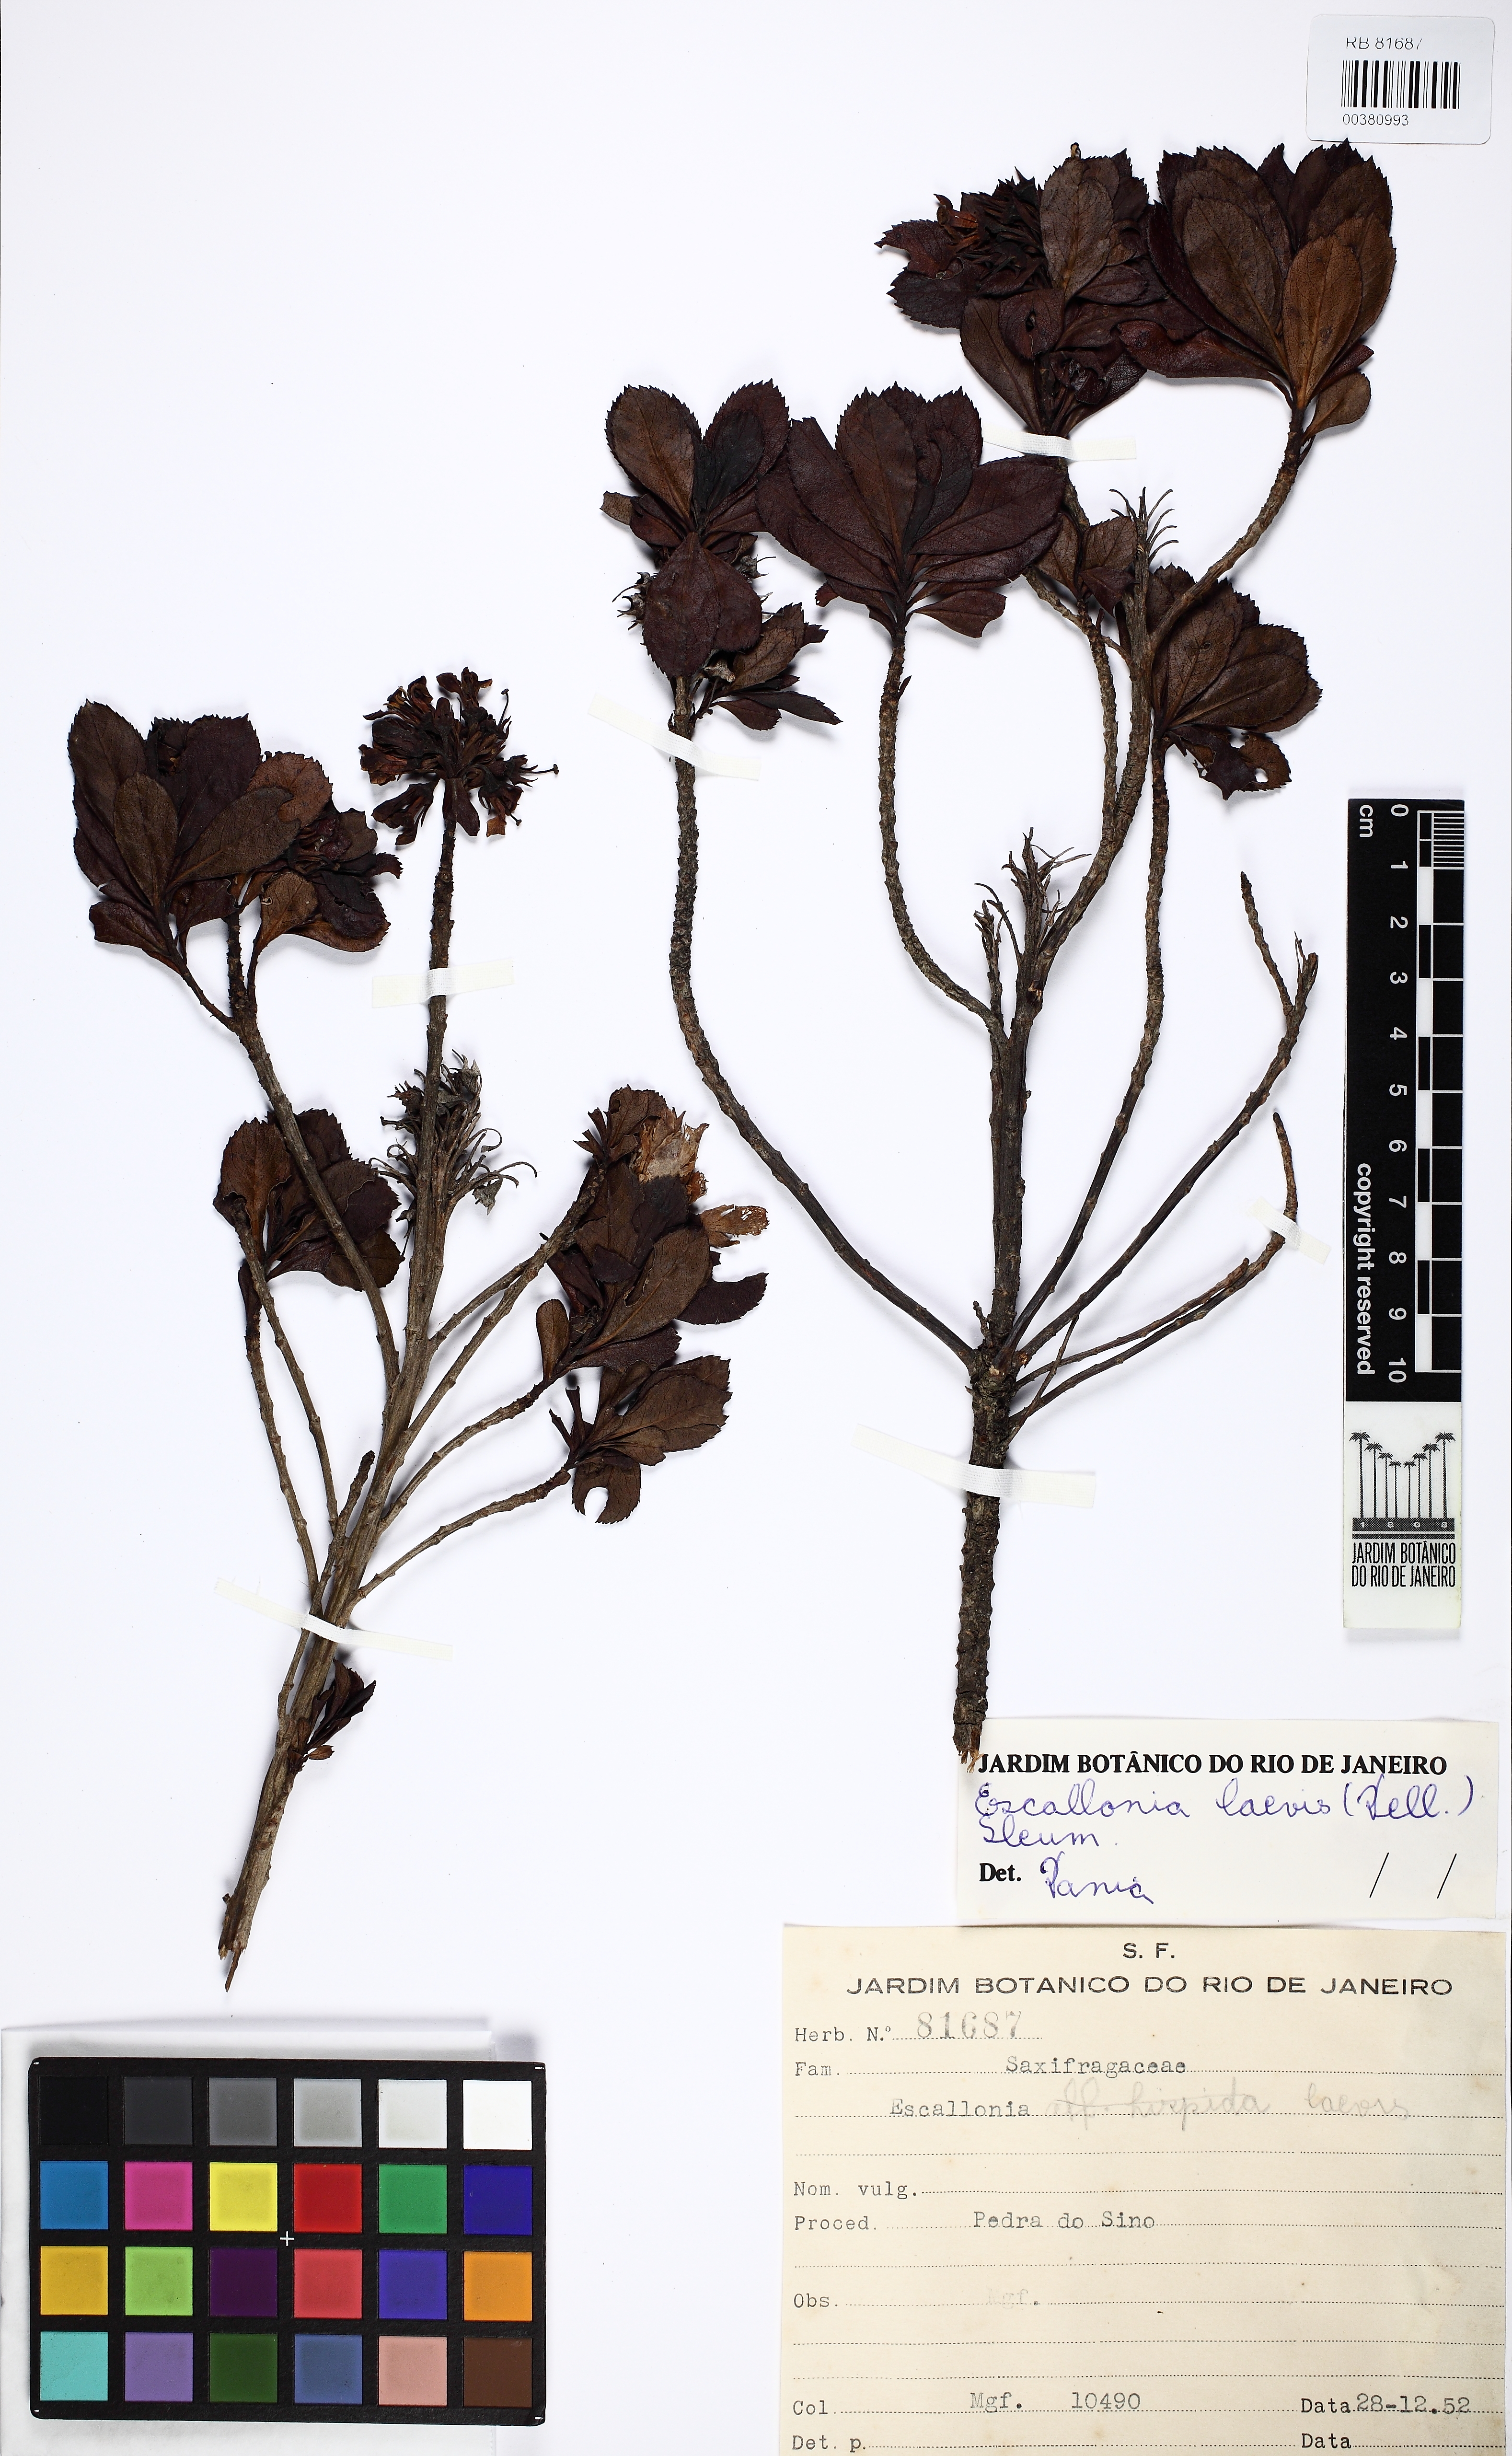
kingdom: Plantae
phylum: Tracheophyta
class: Magnoliopsida
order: Escalloniales
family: Escalloniaceae
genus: Escallonia
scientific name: Escallonia laevis
